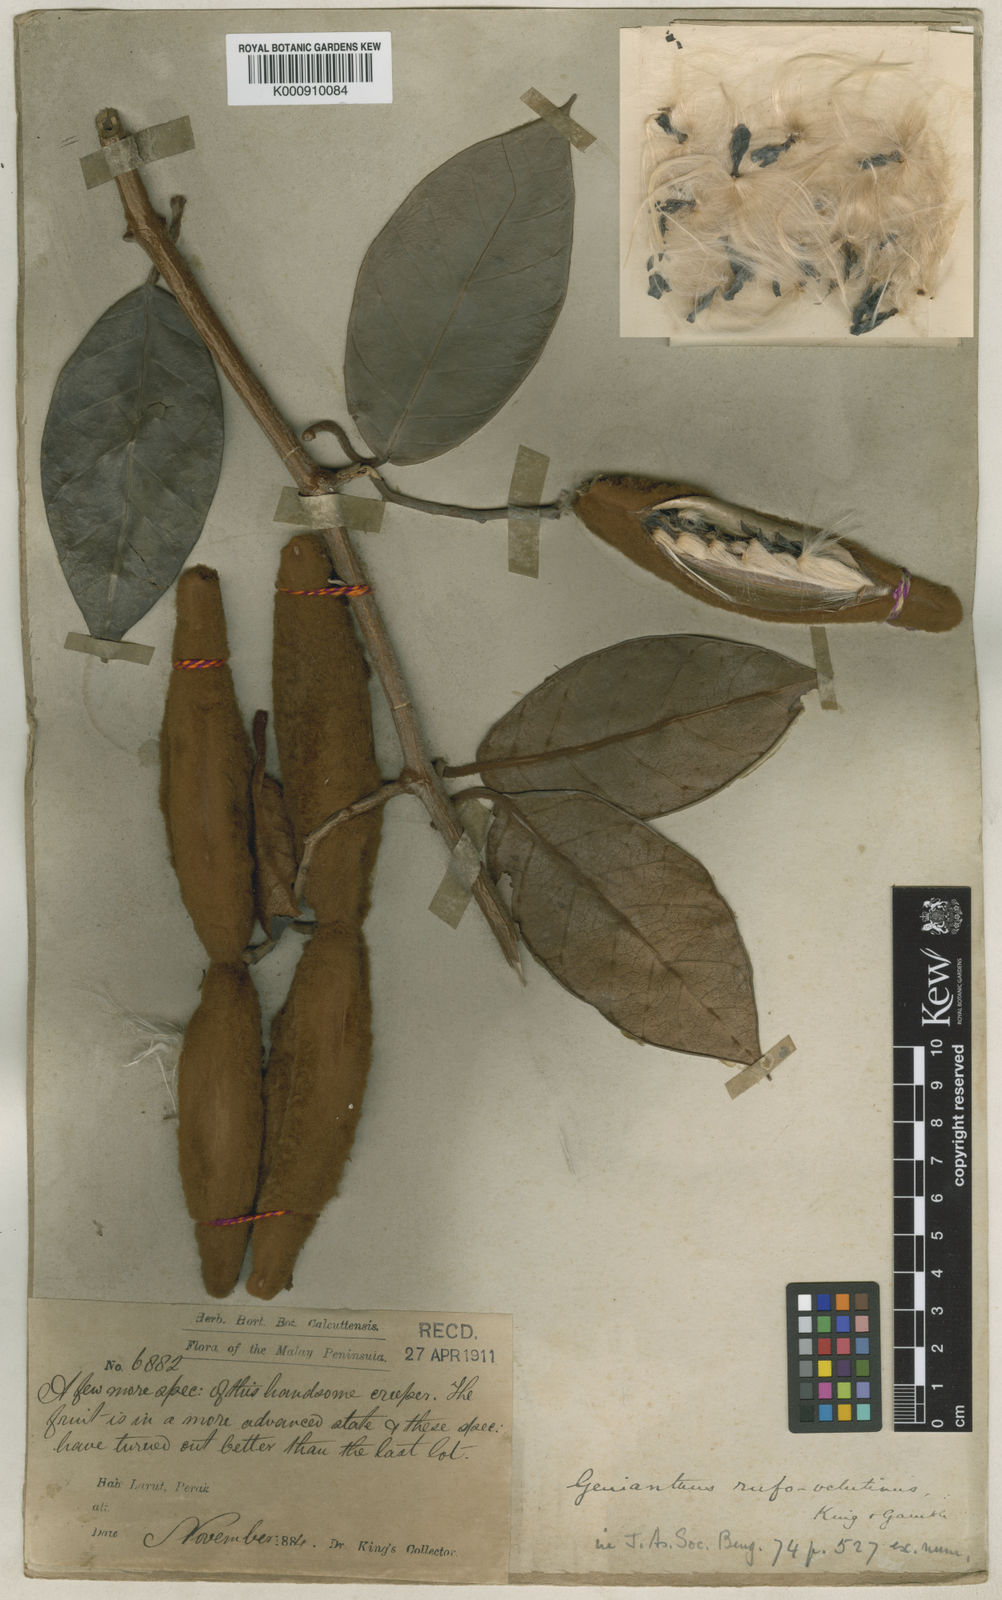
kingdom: Plantae
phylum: Tracheophyta
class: Magnoliopsida
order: Gentianales
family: Apocynaceae
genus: Secamone
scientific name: Secamone
